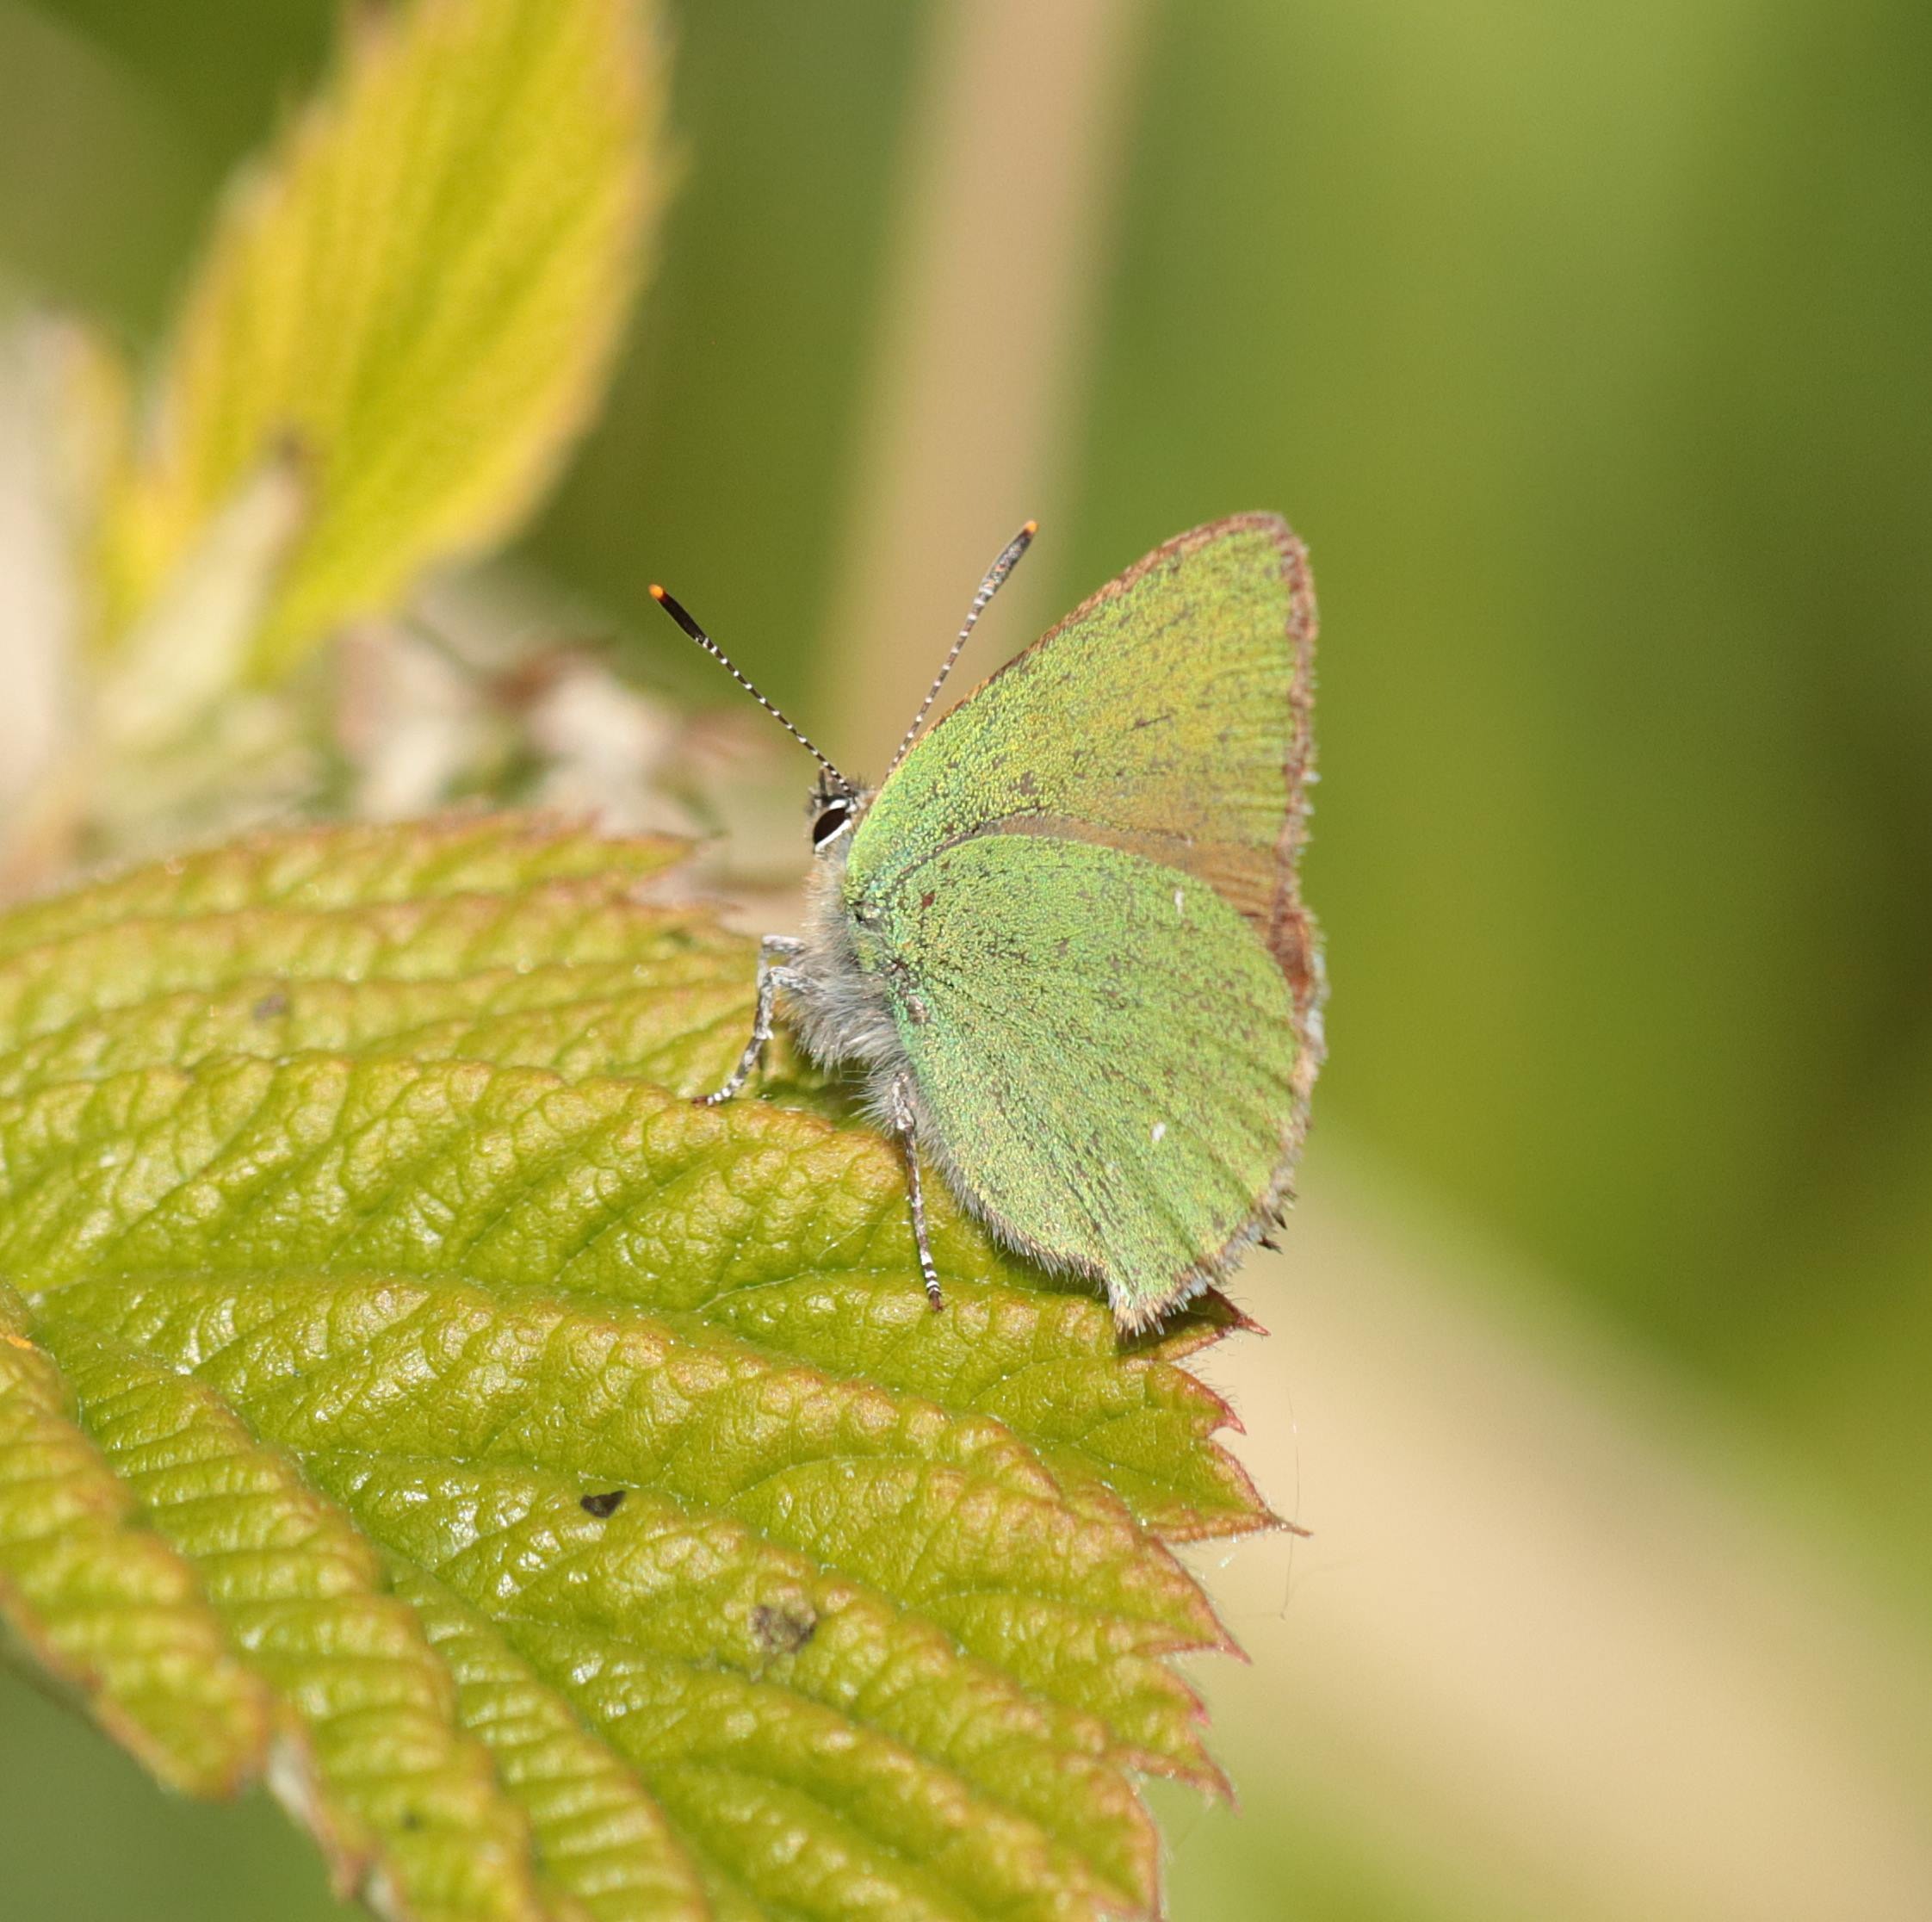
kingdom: Animalia
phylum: Arthropoda
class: Insecta
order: Lepidoptera
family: Lycaenidae
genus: Callophrys
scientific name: Callophrys rubi
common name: Grøn busksommerfugl
